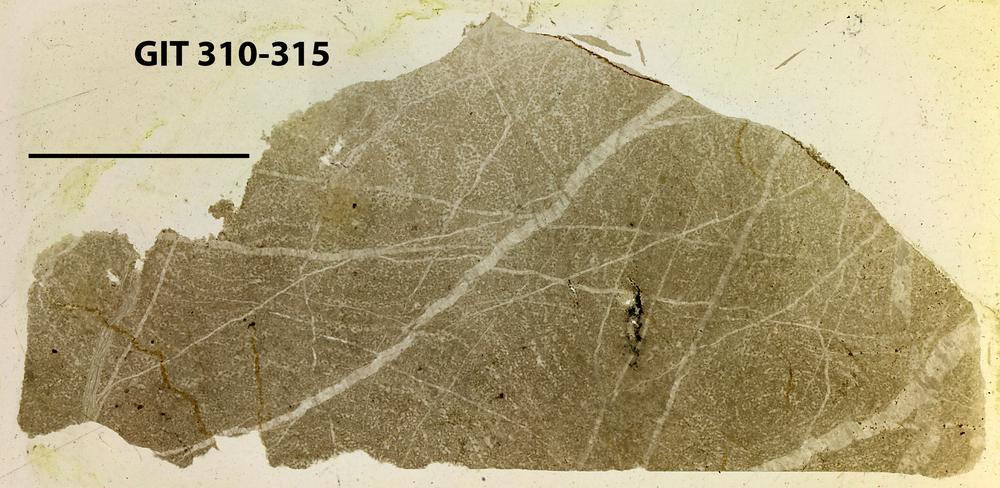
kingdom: Animalia
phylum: Porifera
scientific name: Porifera
